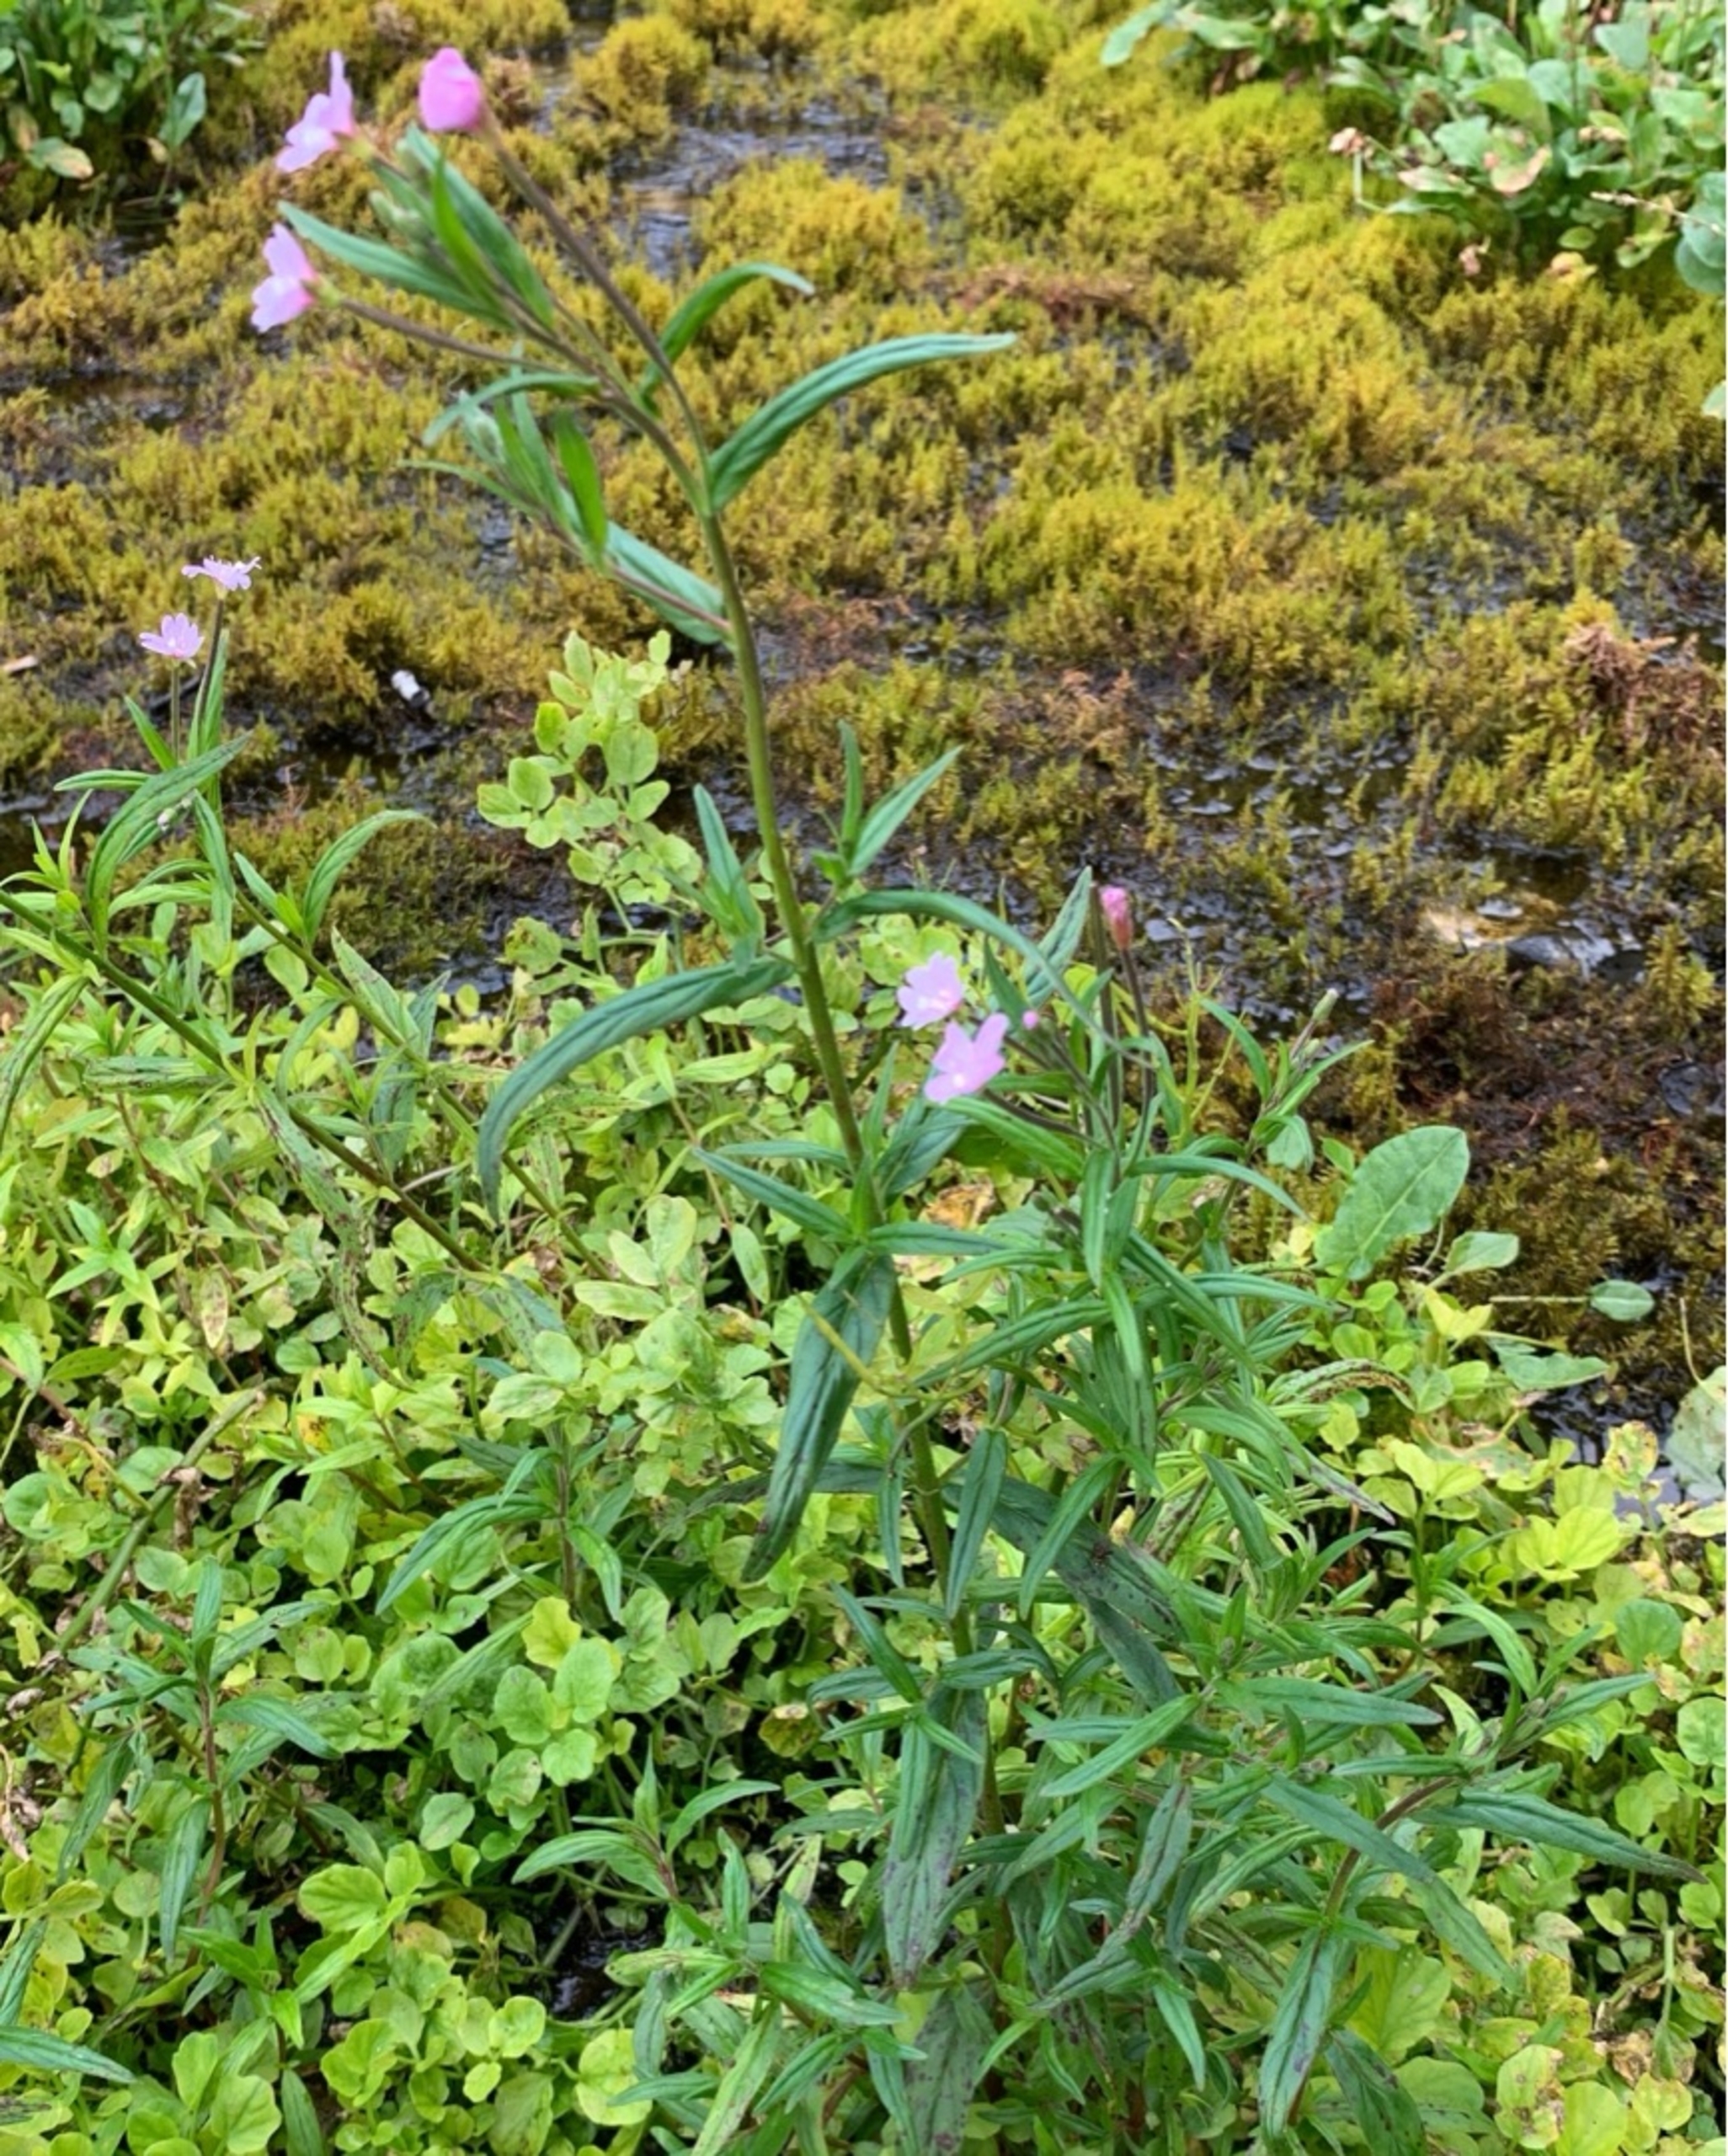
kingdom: Plantae
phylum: Tracheophyta
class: Magnoliopsida
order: Myrtales
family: Onagraceae
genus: Epilobium
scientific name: Epilobium palustre
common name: Kær-dueurt
